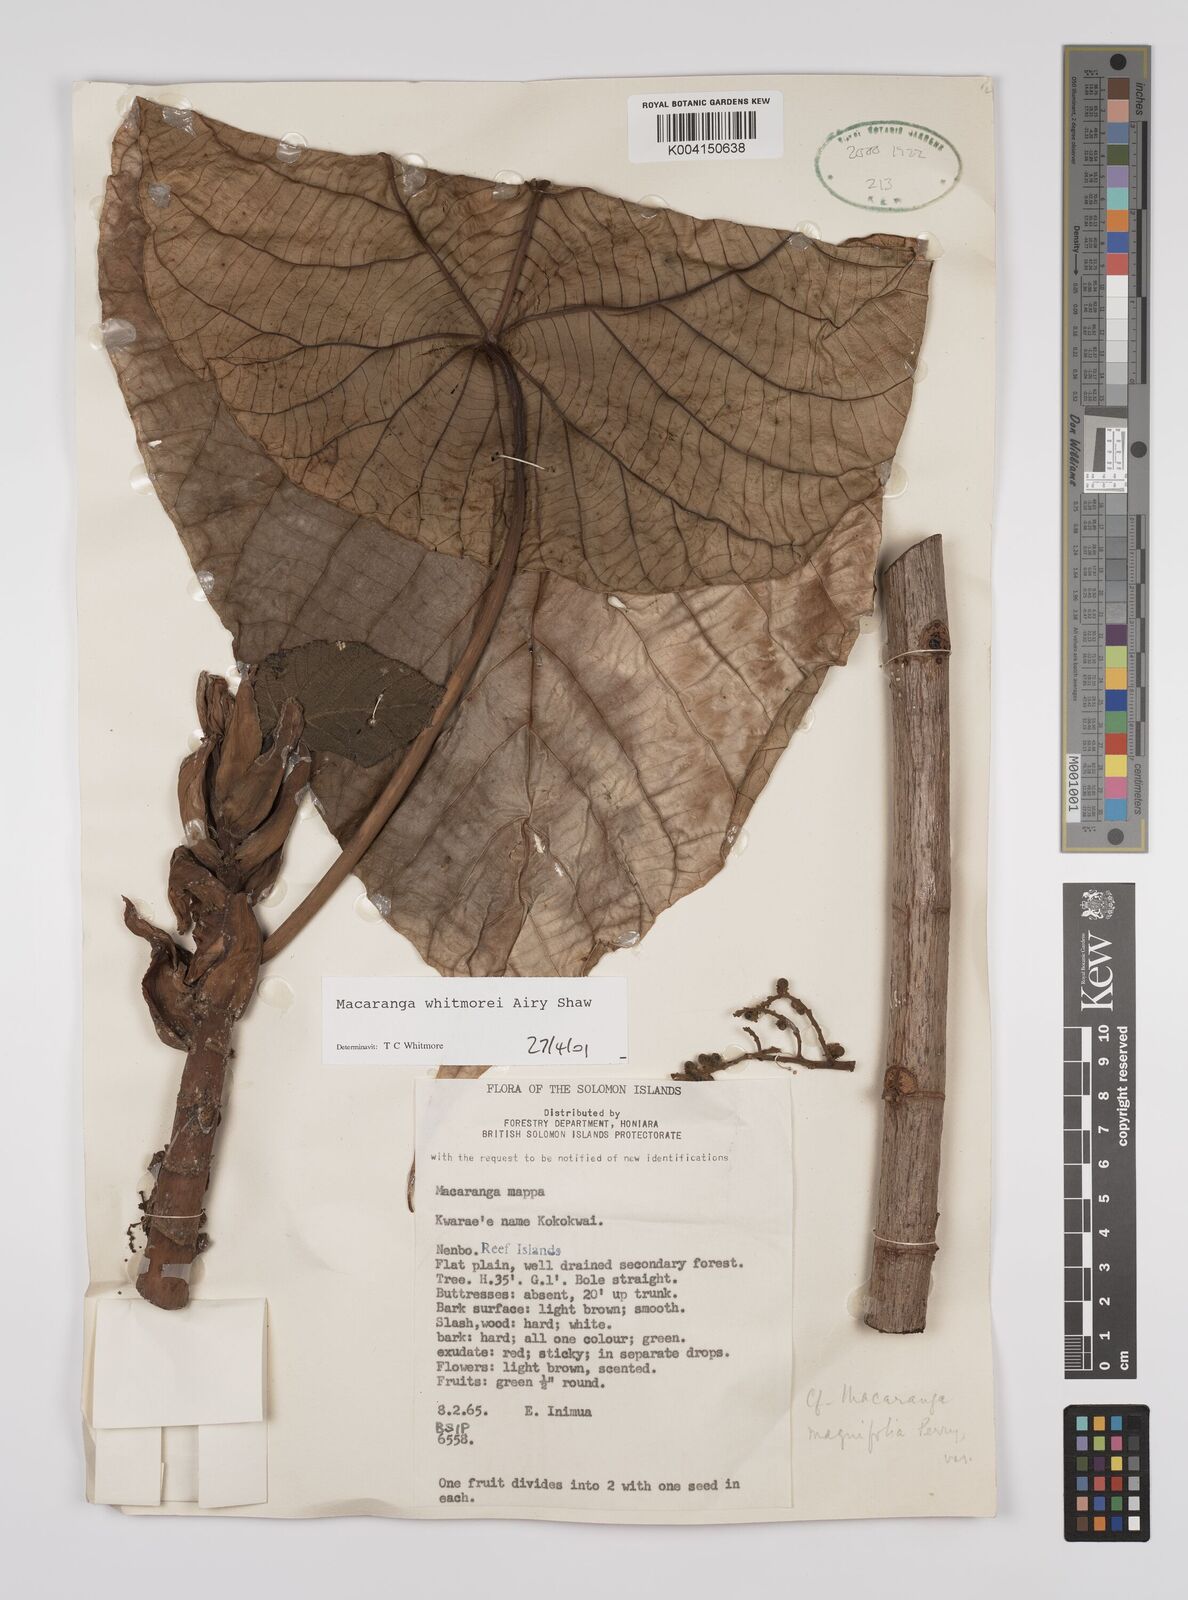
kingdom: Plantae
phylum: Tracheophyta
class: Magnoliopsida
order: Malpighiales
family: Euphorbiaceae
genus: Macaranga
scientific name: Macaranga whitmorei
